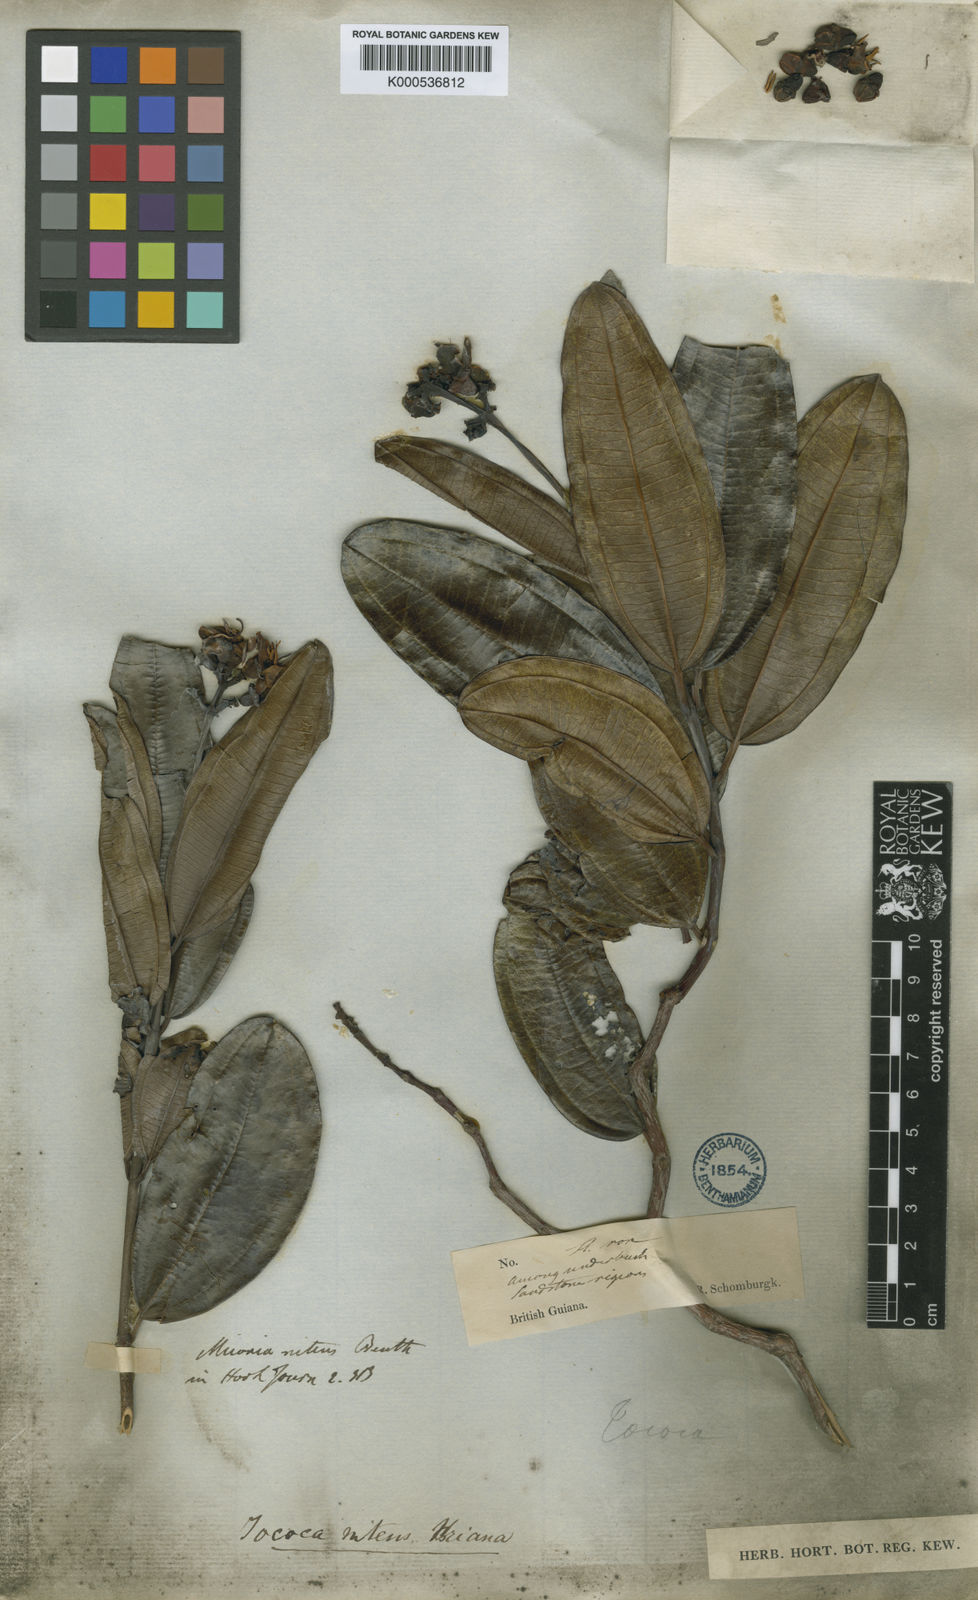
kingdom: Plantae
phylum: Tracheophyta
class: Magnoliopsida
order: Myrtales
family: Melastomataceae
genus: Miconia
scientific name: Miconia nitens
